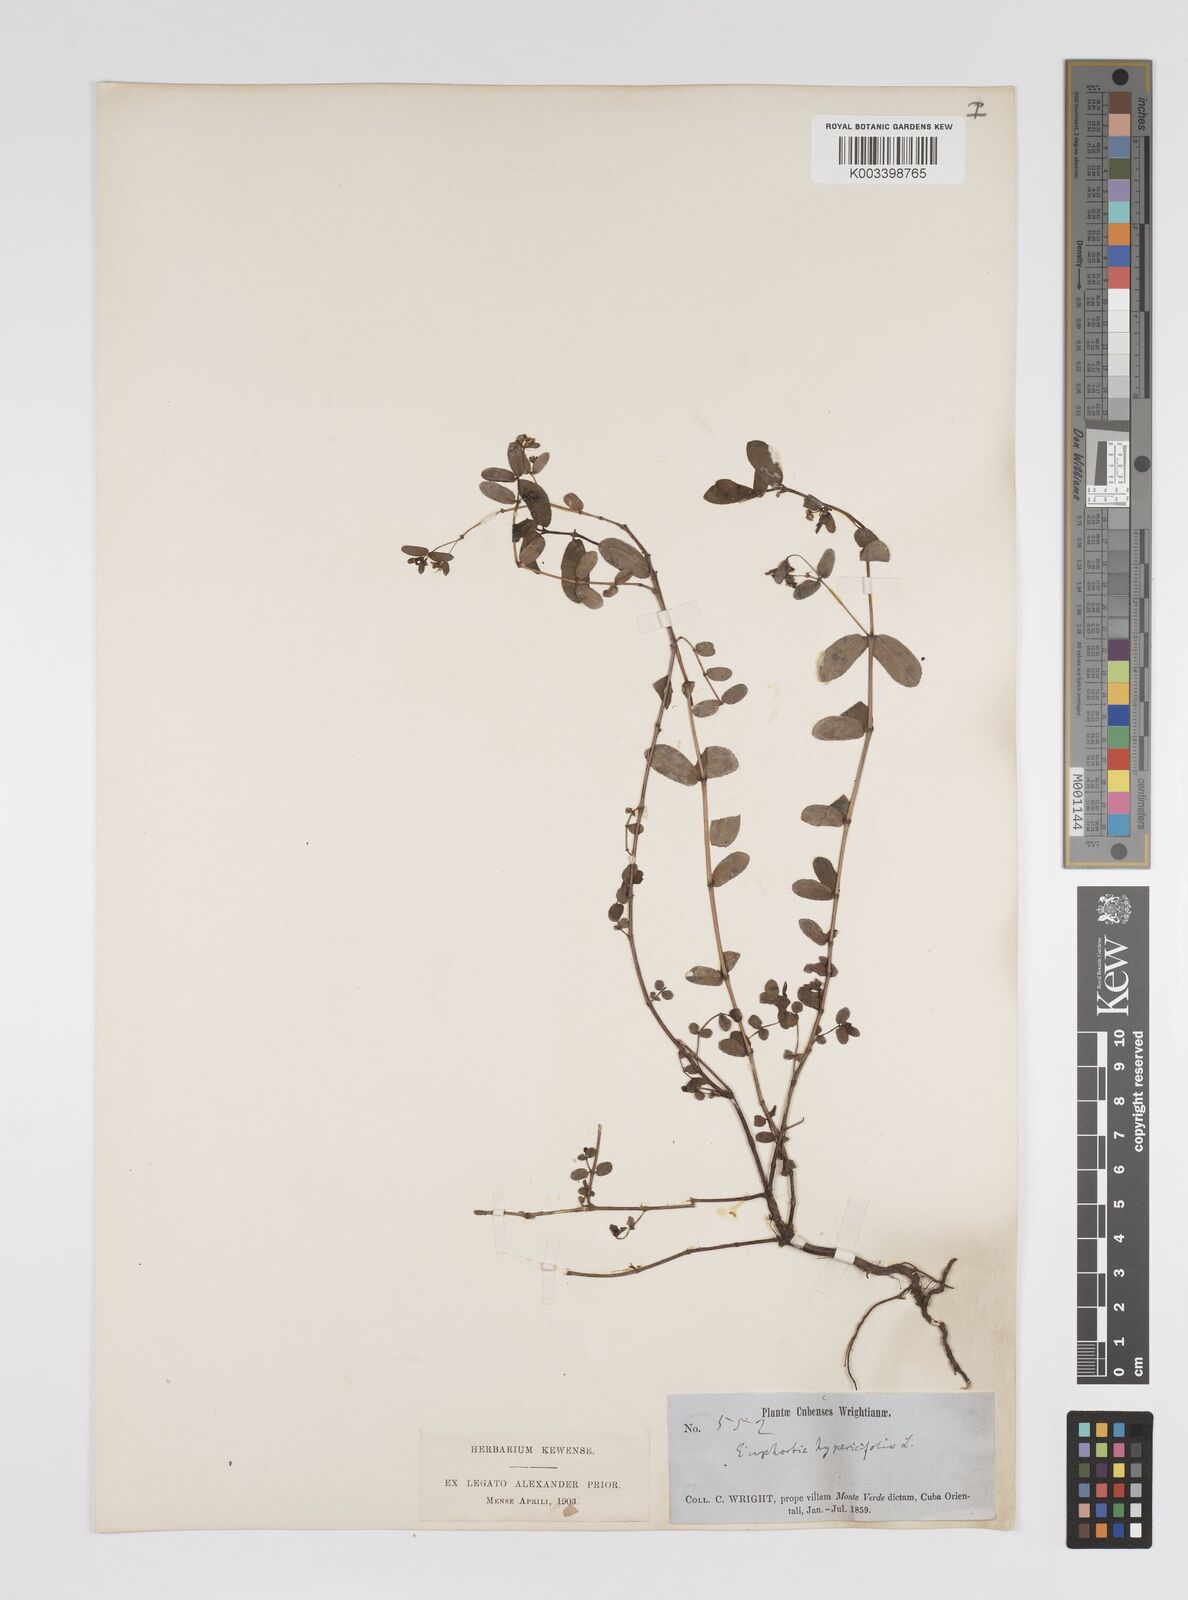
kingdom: Plantae
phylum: Tracheophyta
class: Magnoliopsida
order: Malpighiales
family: Euphorbiaceae
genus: Euphorbia
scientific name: Euphorbia
